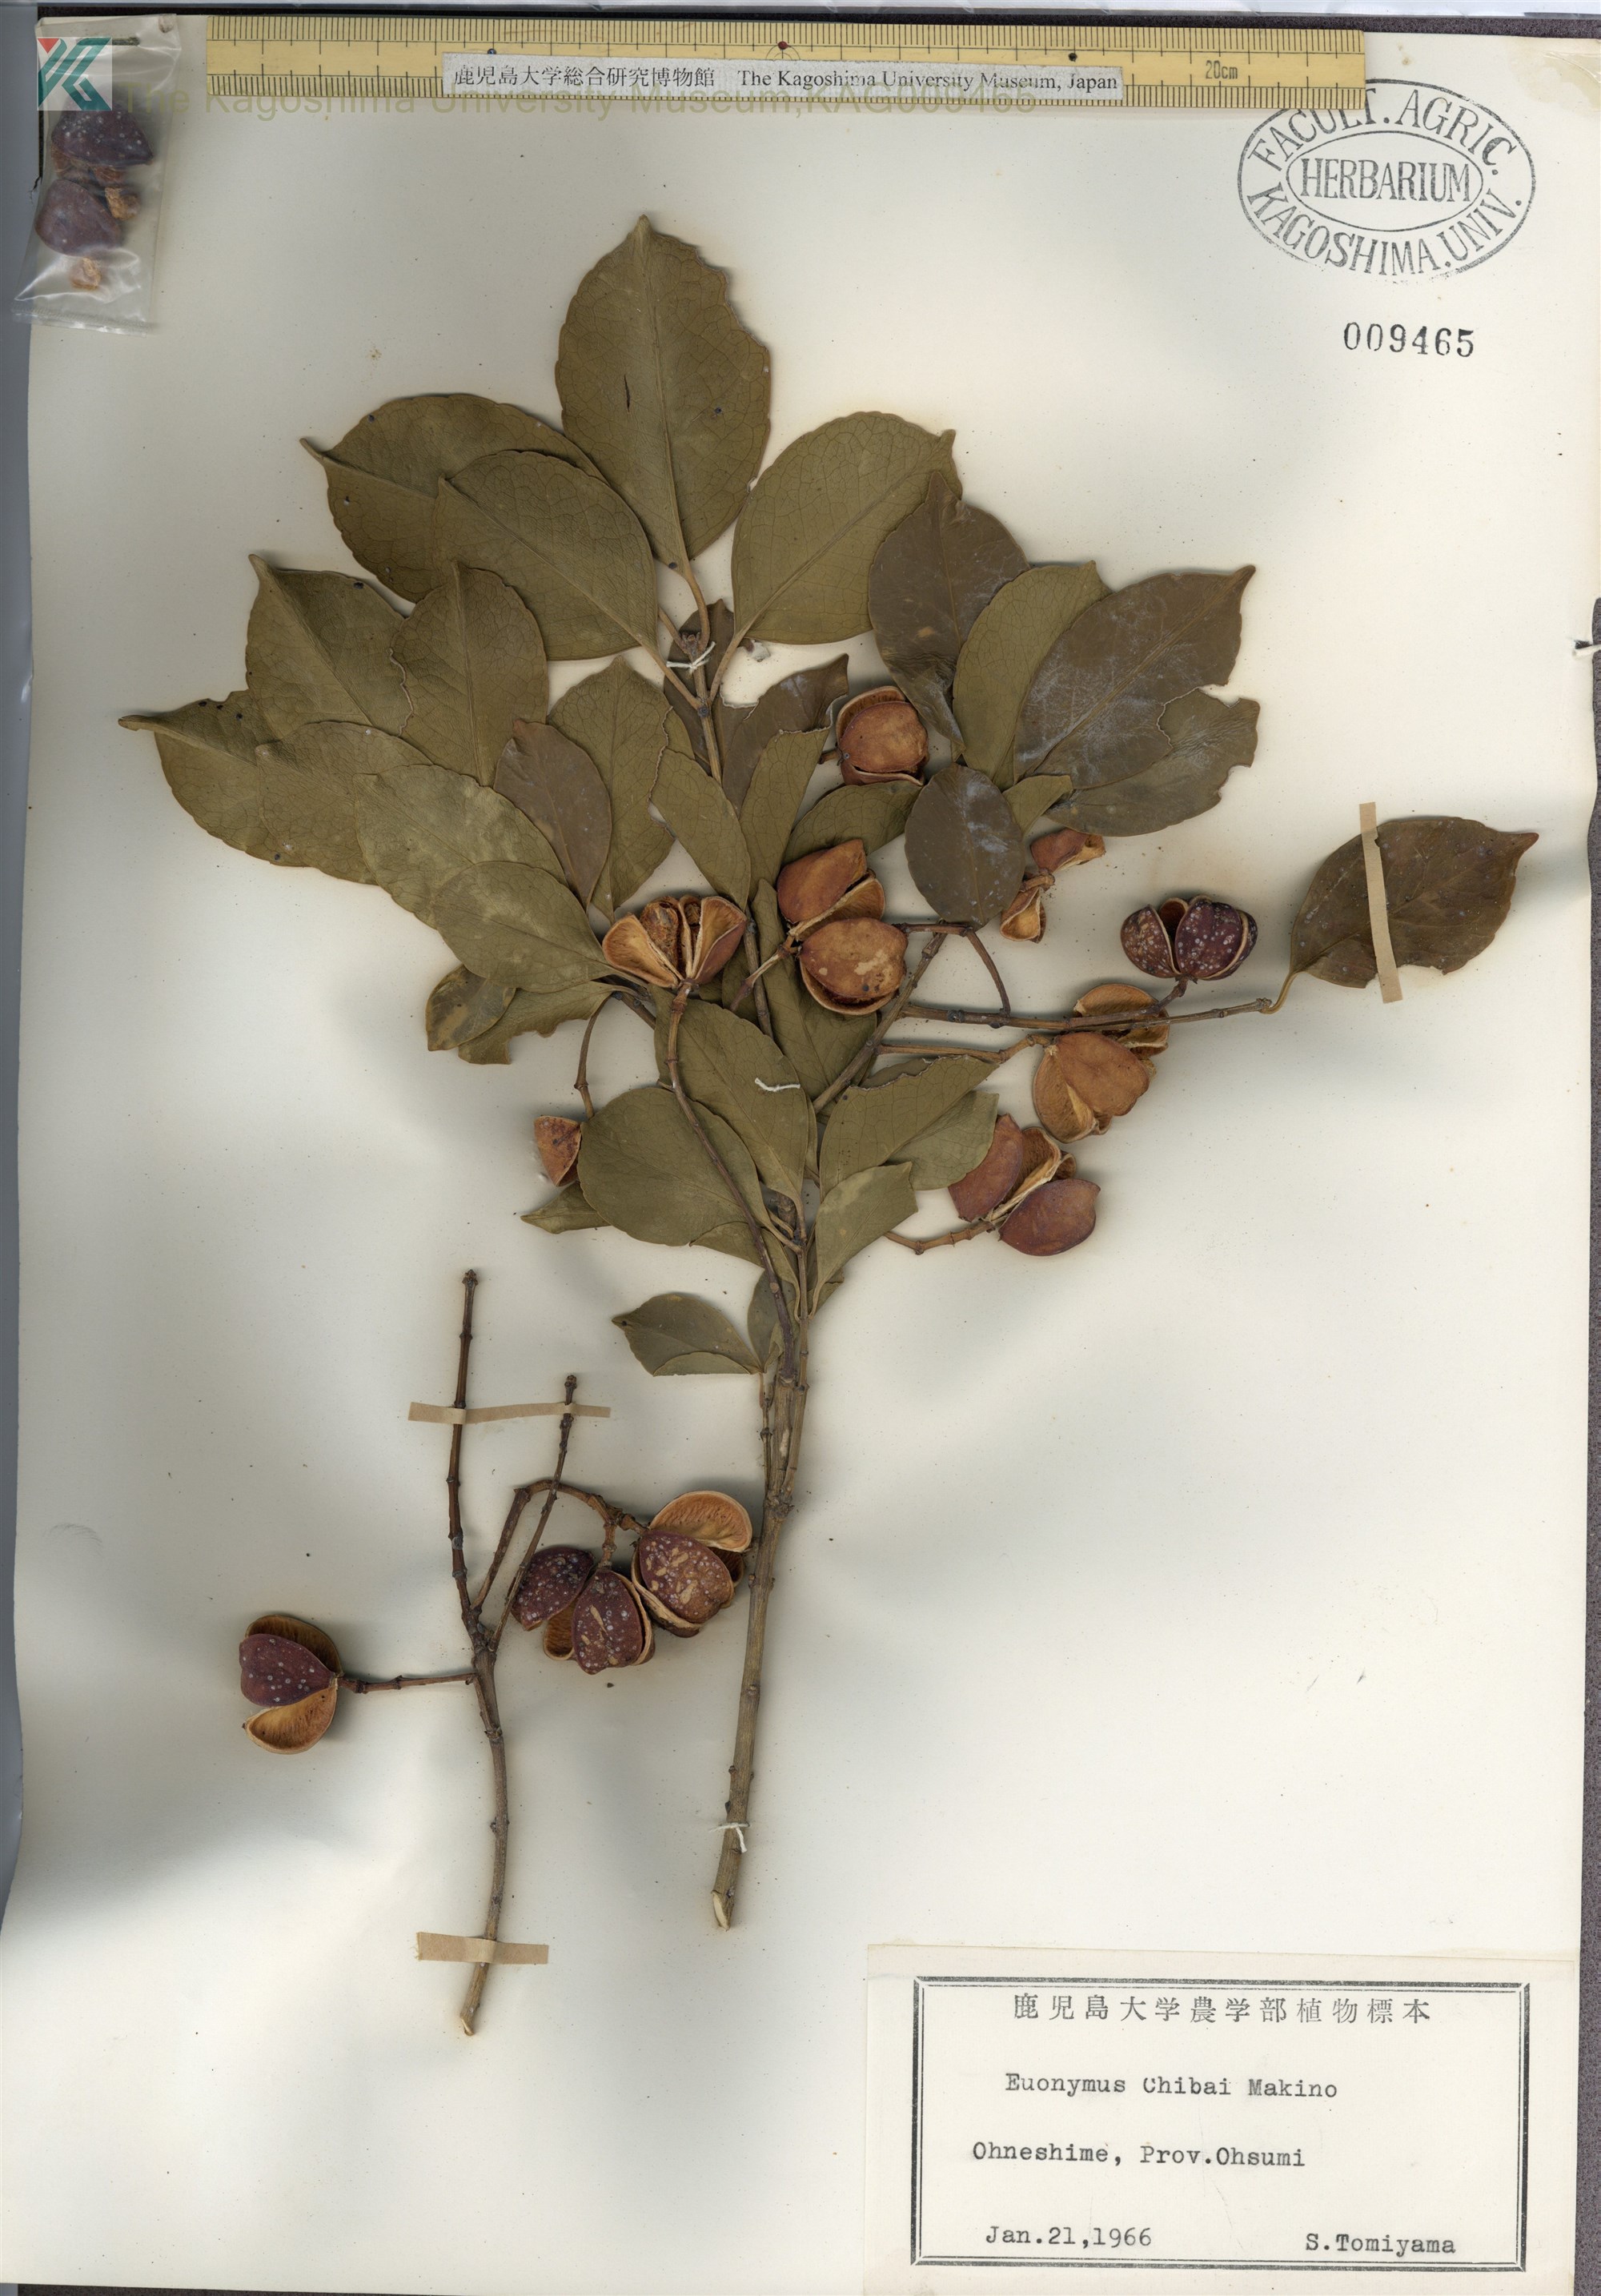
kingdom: Plantae
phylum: Tracheophyta
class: Magnoliopsida
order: Celastrales
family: Celastraceae
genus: Euonymus
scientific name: Euonymus chibae
